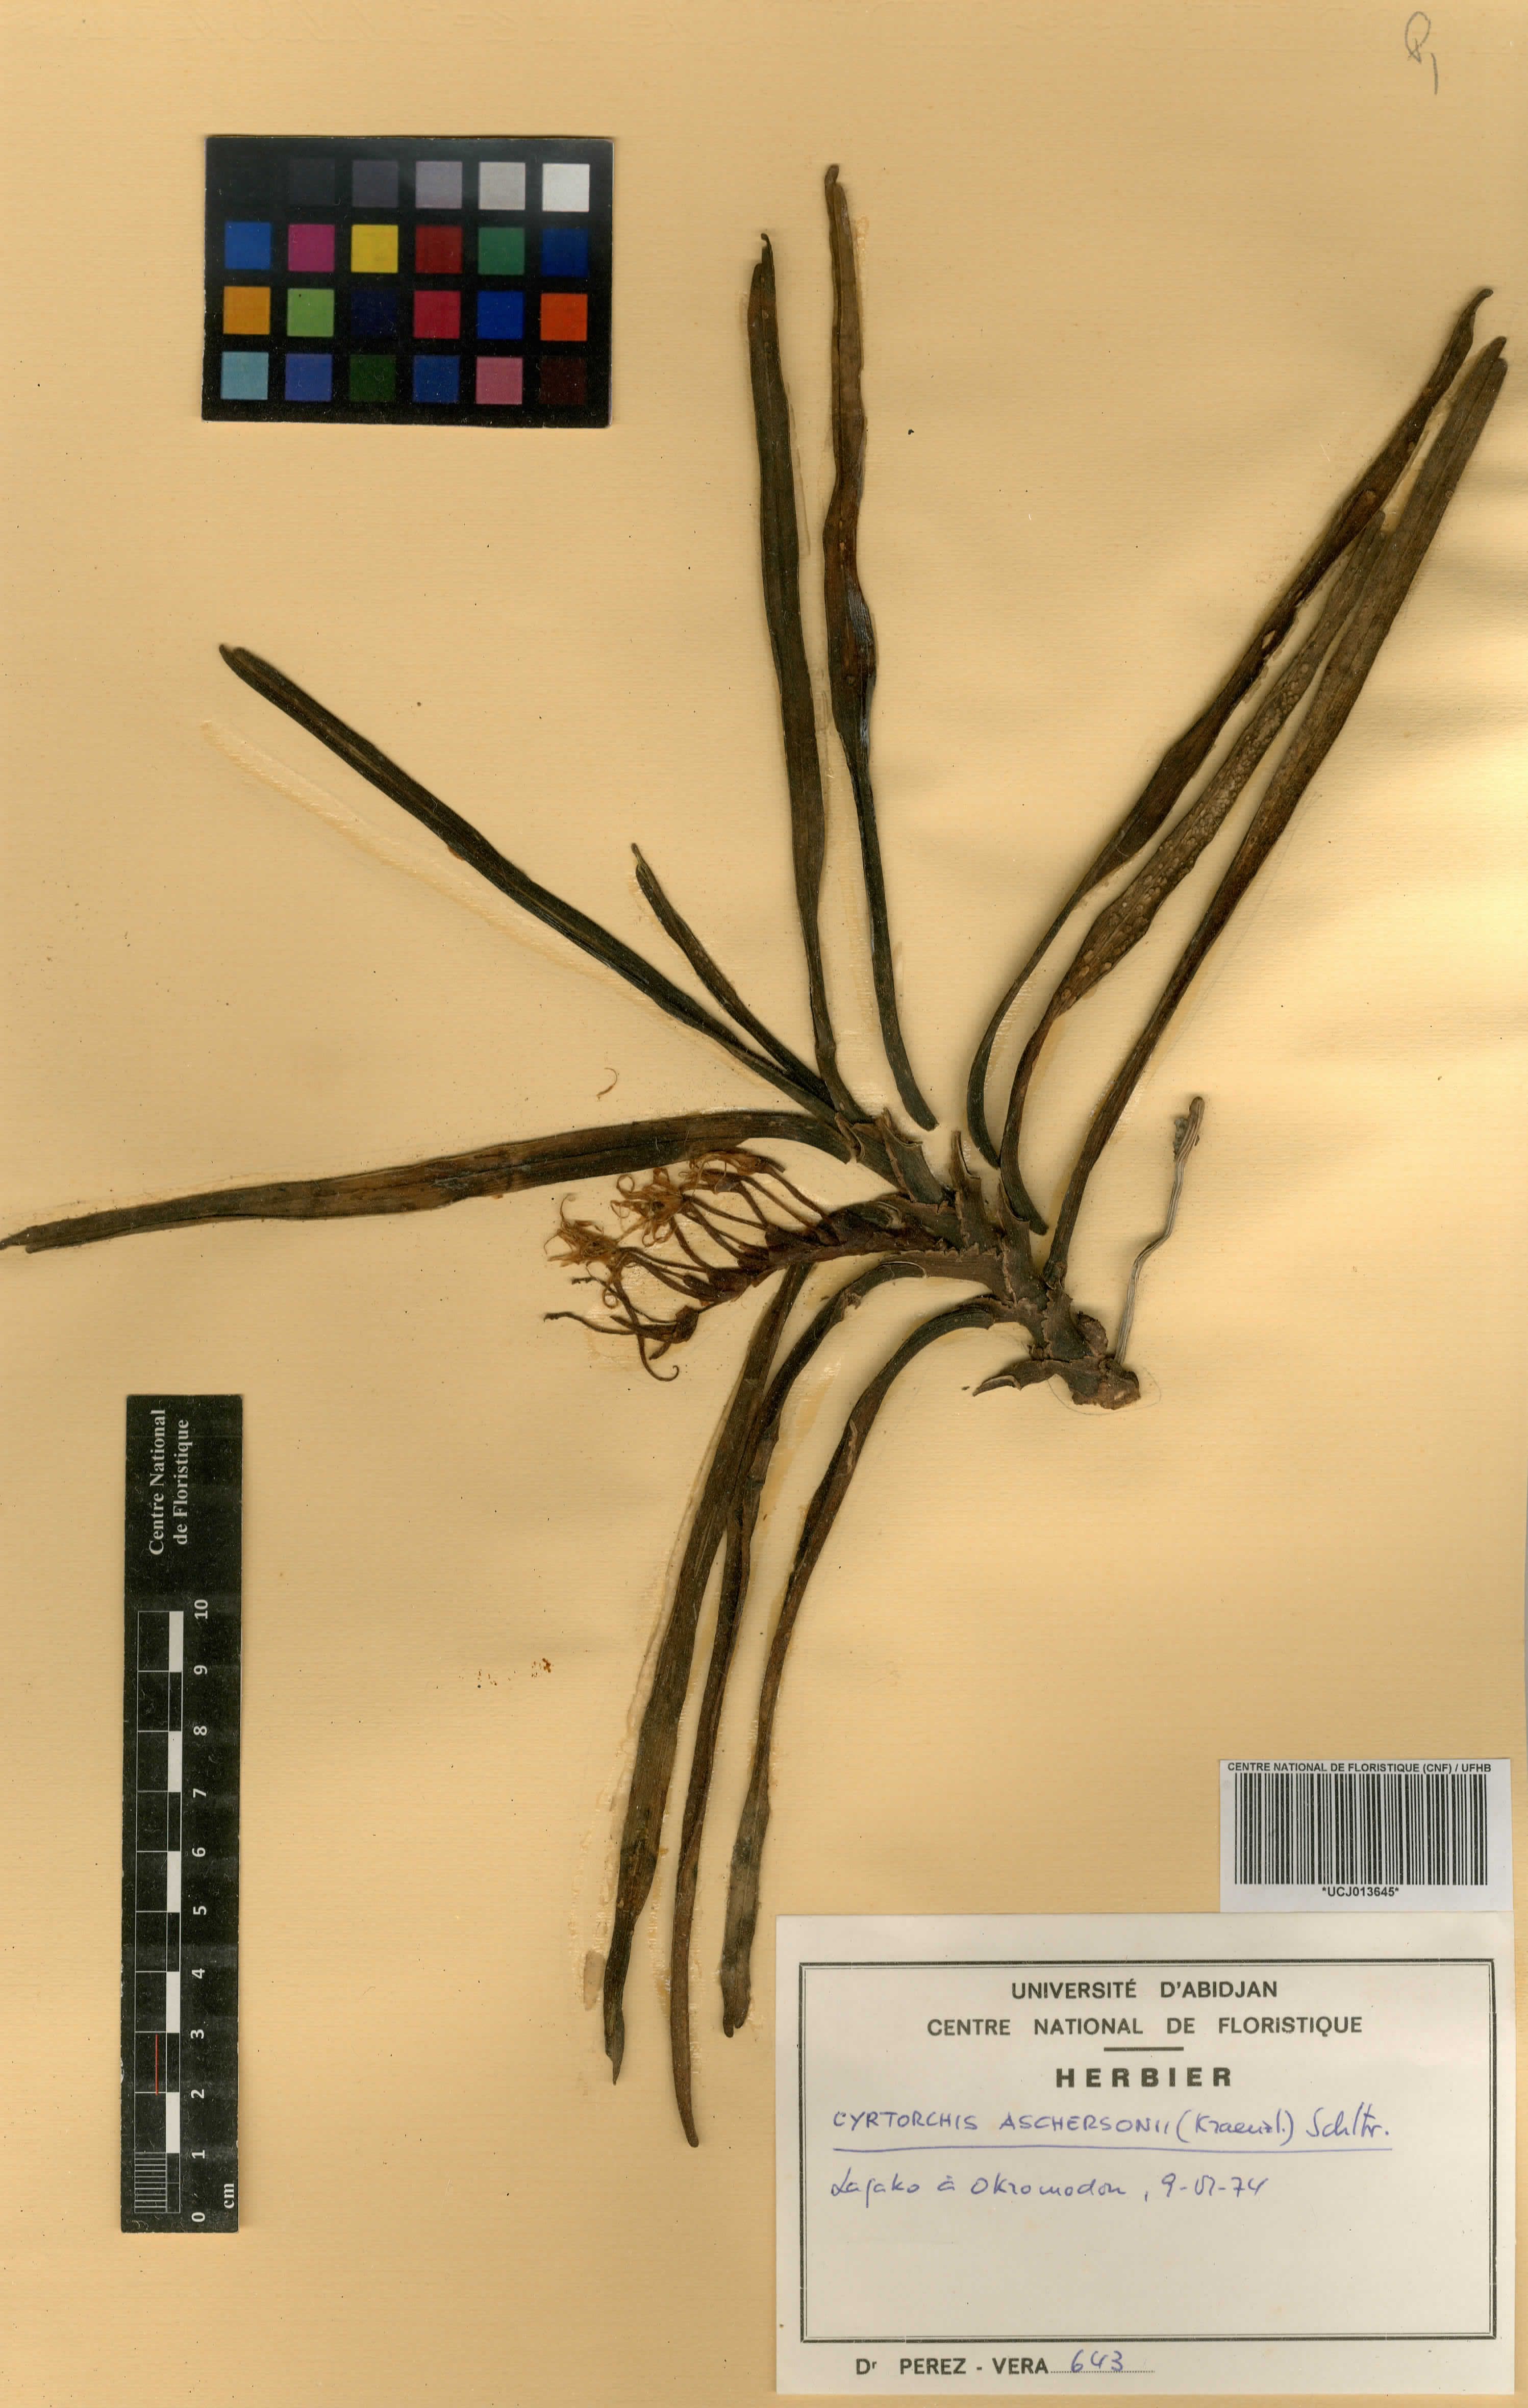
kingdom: Plantae
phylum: Tracheophyta
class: Liliopsida
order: Asparagales
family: Orchidaceae
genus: Cyrtorchis
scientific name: Cyrtorchis aschersonii
